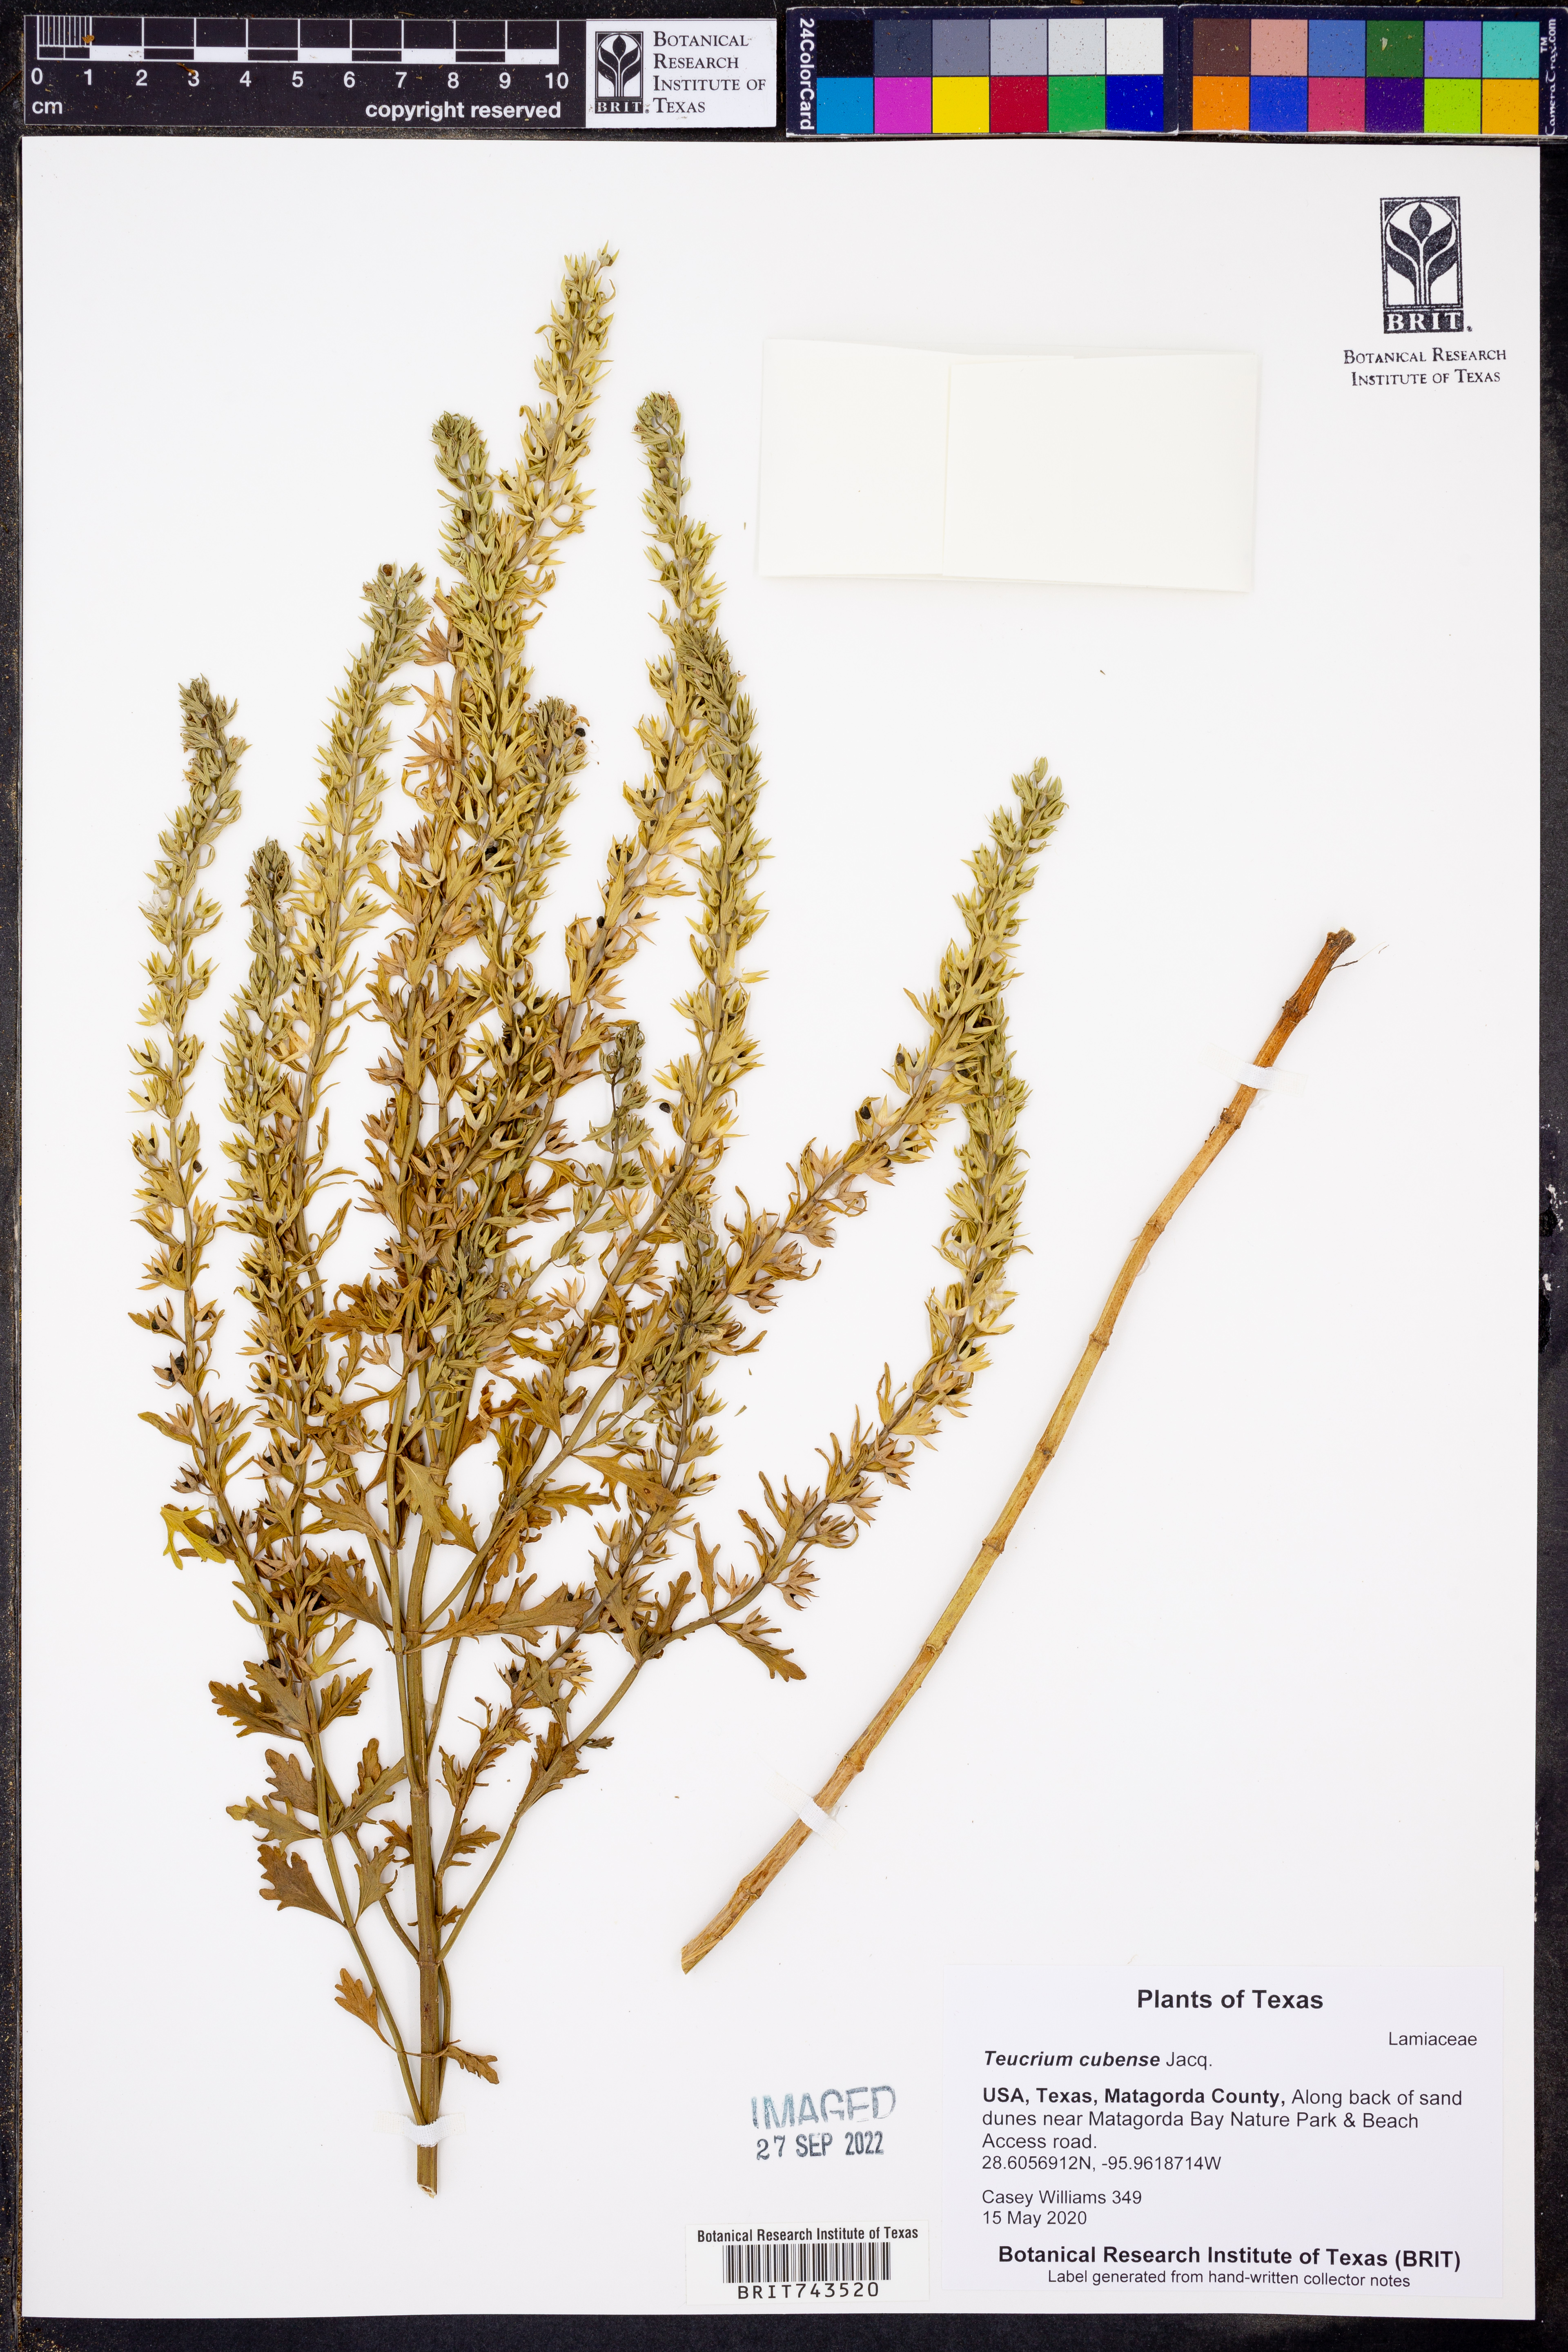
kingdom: Plantae
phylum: Tracheophyta
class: Magnoliopsida
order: Lamiales
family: Lamiaceae
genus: Teucrium
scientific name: Teucrium cubense
